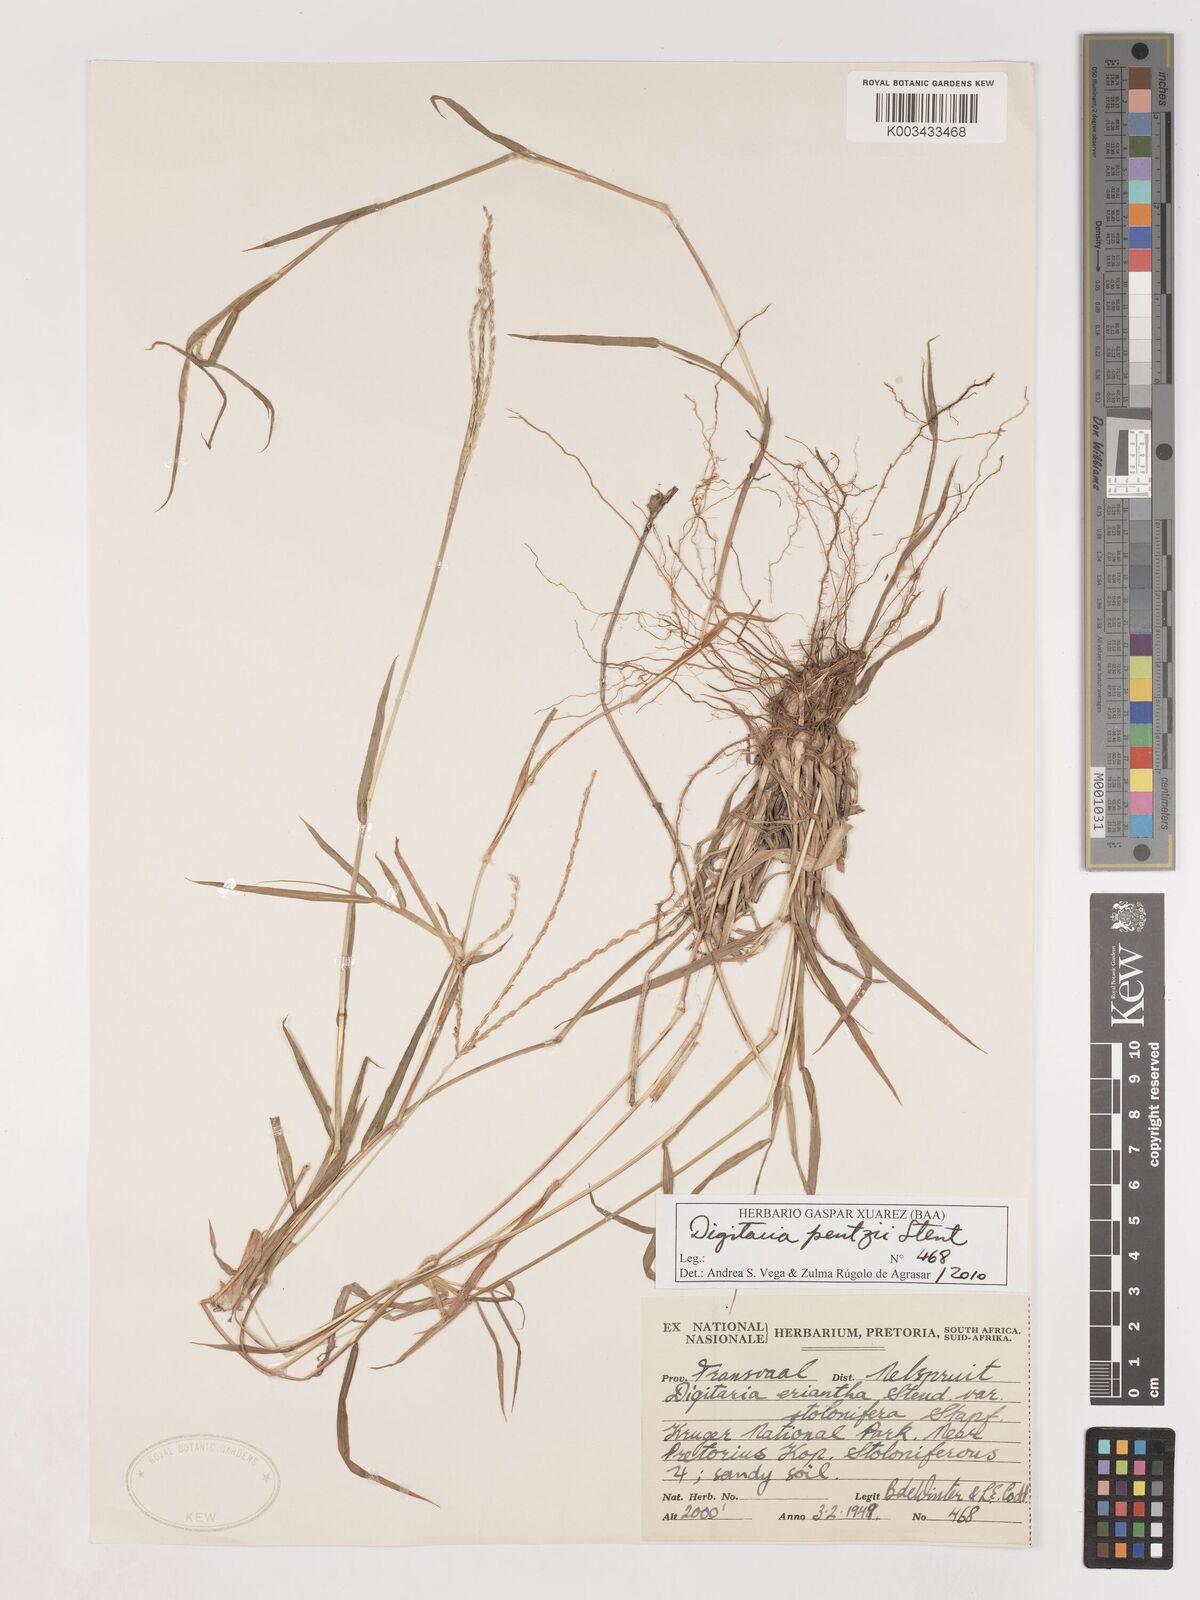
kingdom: Plantae
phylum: Tracheophyta
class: Liliopsida
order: Poales
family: Poaceae
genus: Digitaria
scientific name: Digitaria eriantha
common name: Digitgrass
